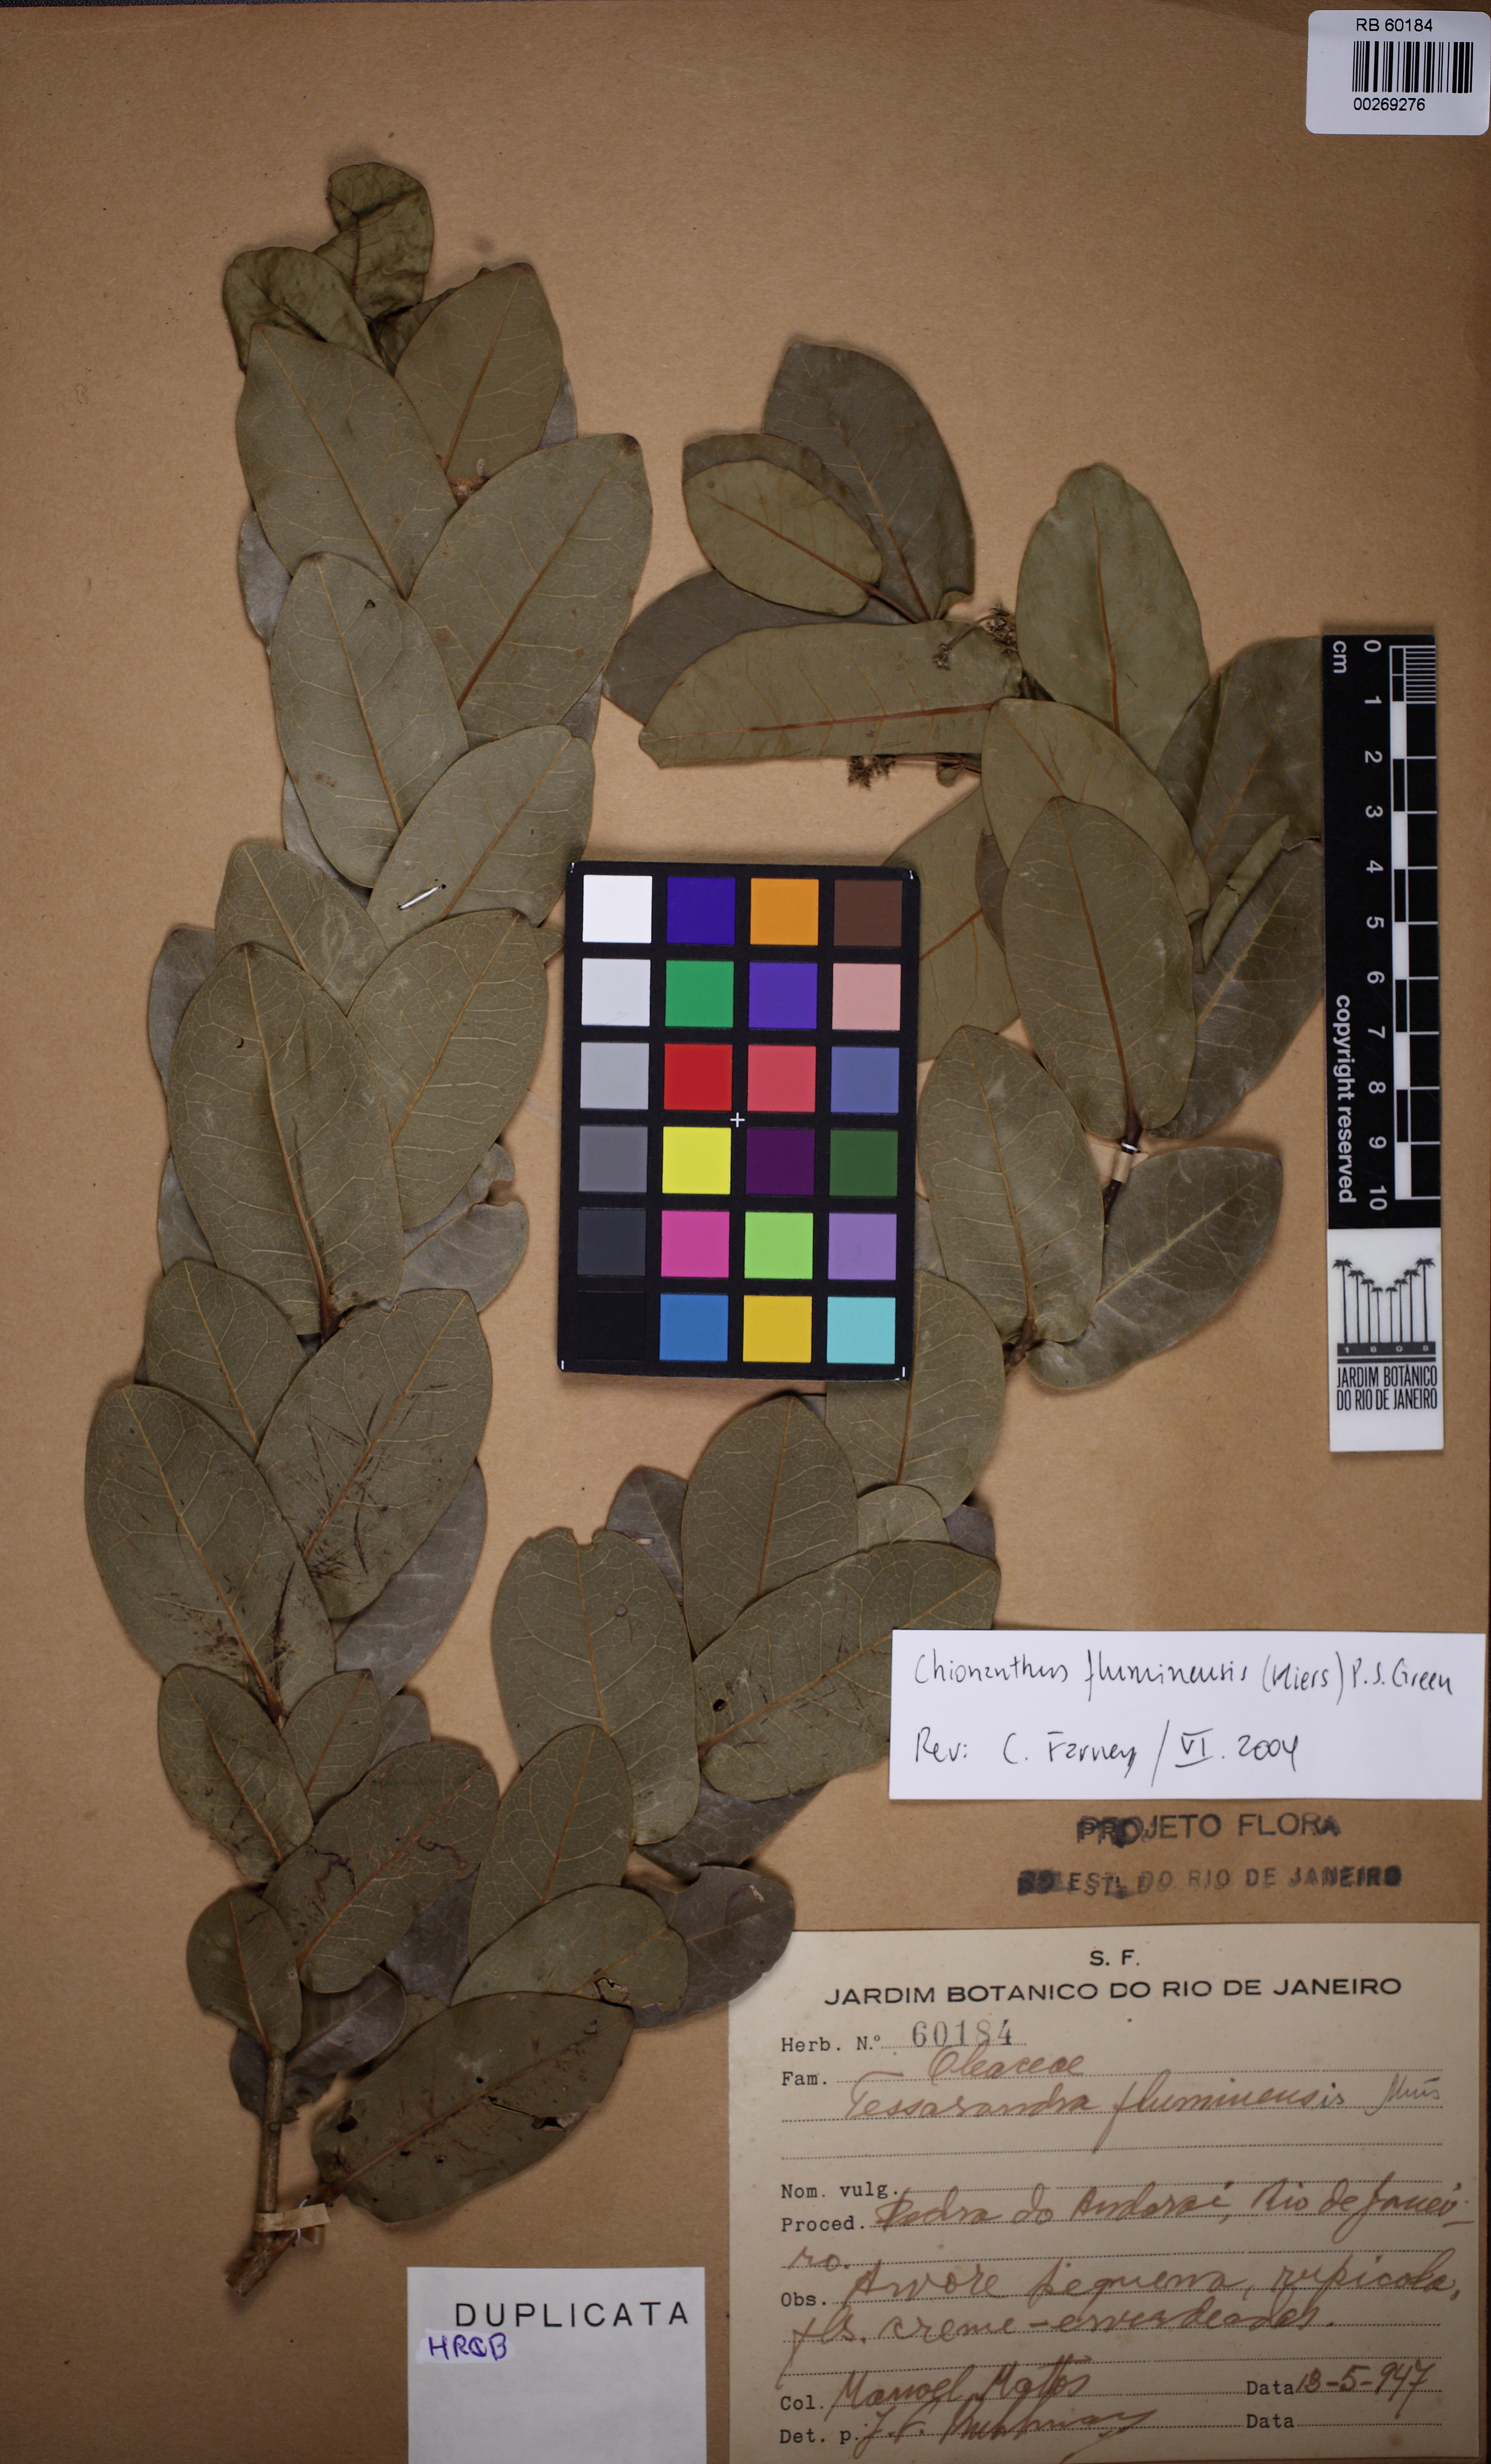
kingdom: Plantae
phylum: Tracheophyta
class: Magnoliopsida
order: Lamiales
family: Oleaceae
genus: Chionanthus
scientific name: Chionanthus fluminensis
